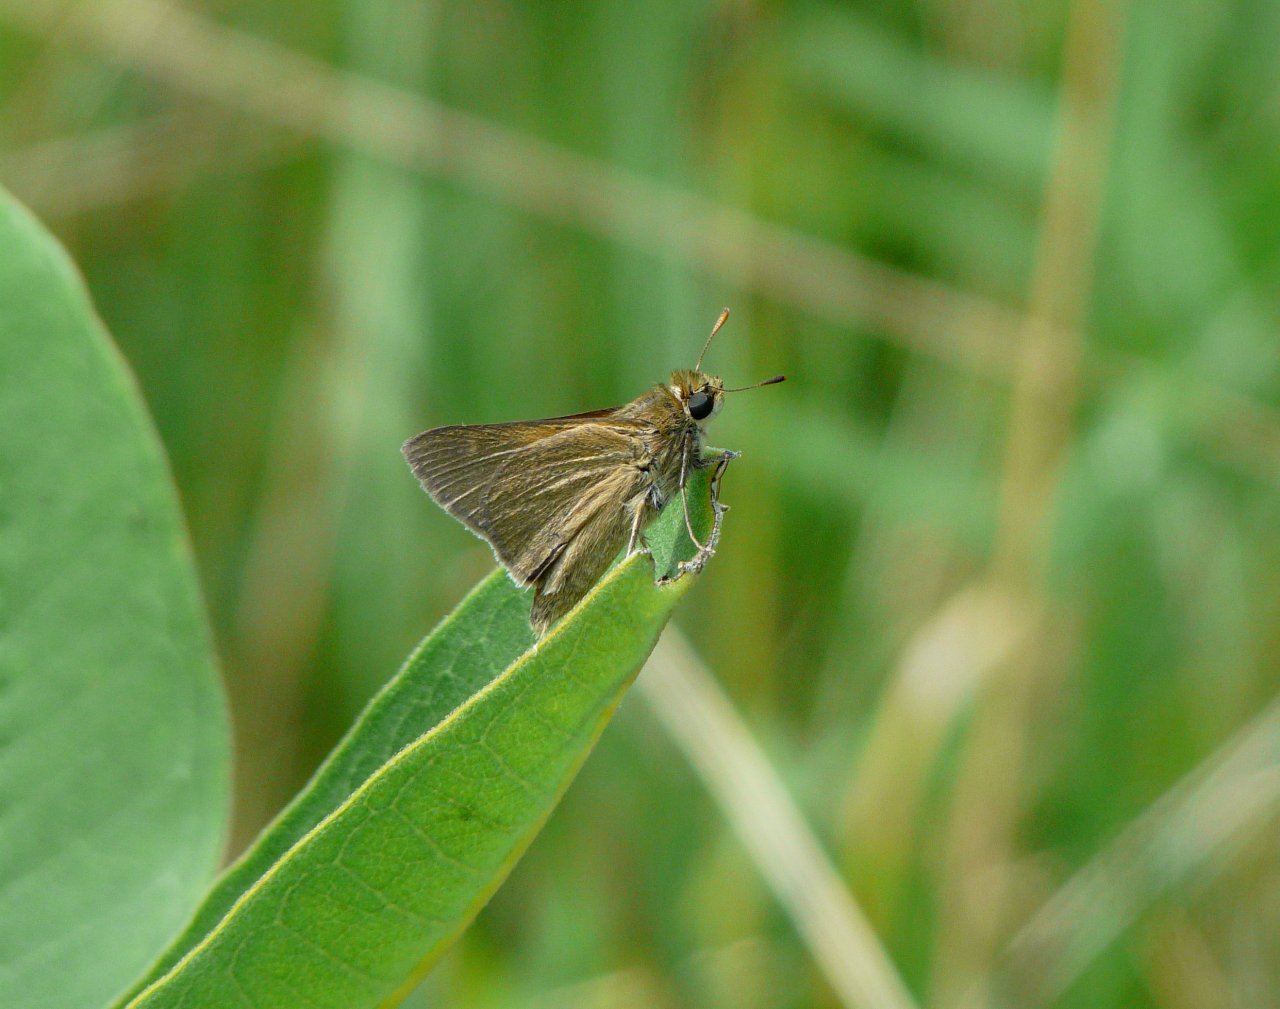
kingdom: Animalia
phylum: Arthropoda
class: Insecta
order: Lepidoptera
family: Hesperiidae
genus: Polites
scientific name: Polites
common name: Crossline Skipper
